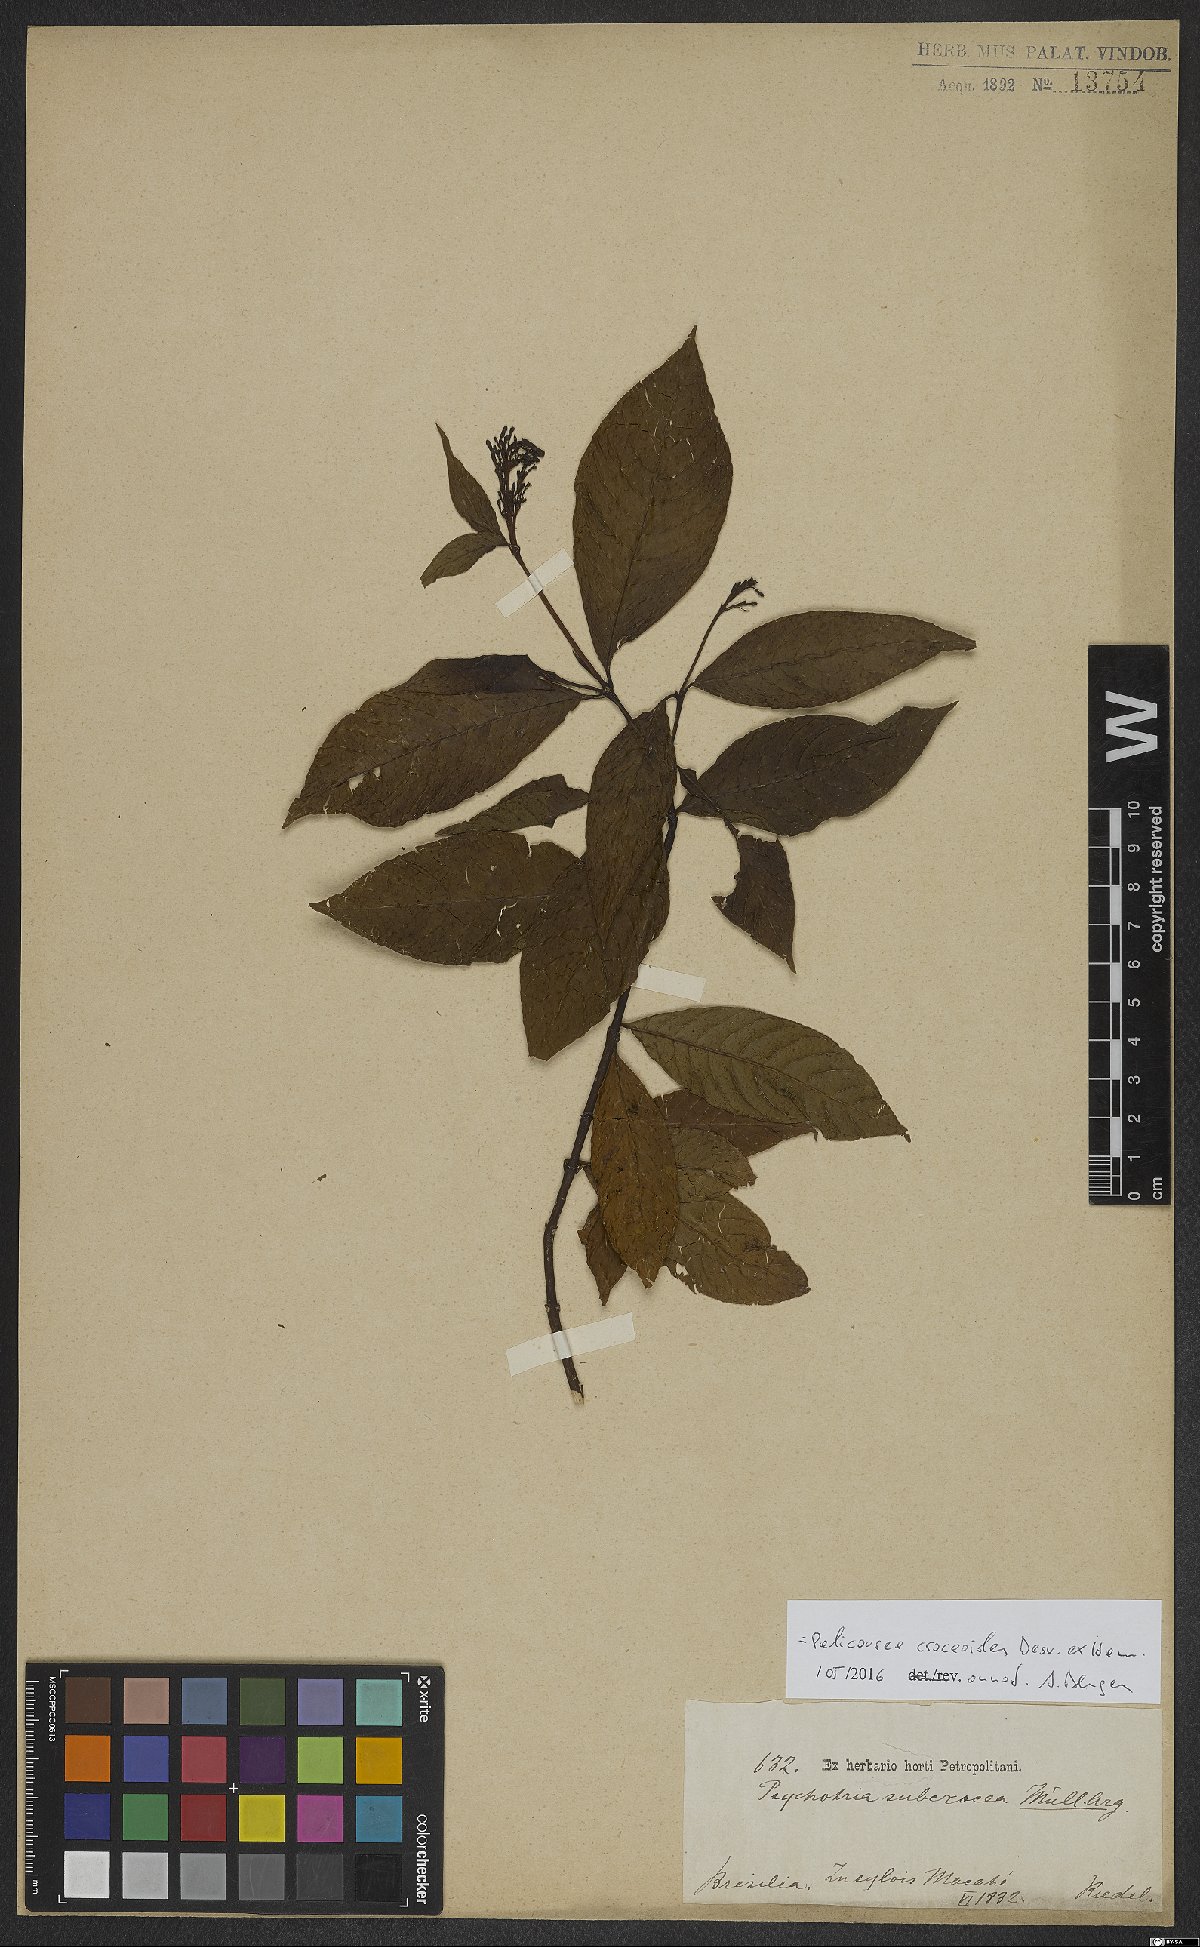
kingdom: Plantae
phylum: Tracheophyta
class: Magnoliopsida
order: Gentianales
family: Rubiaceae
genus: Palicourea
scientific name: Palicourea croceoides
